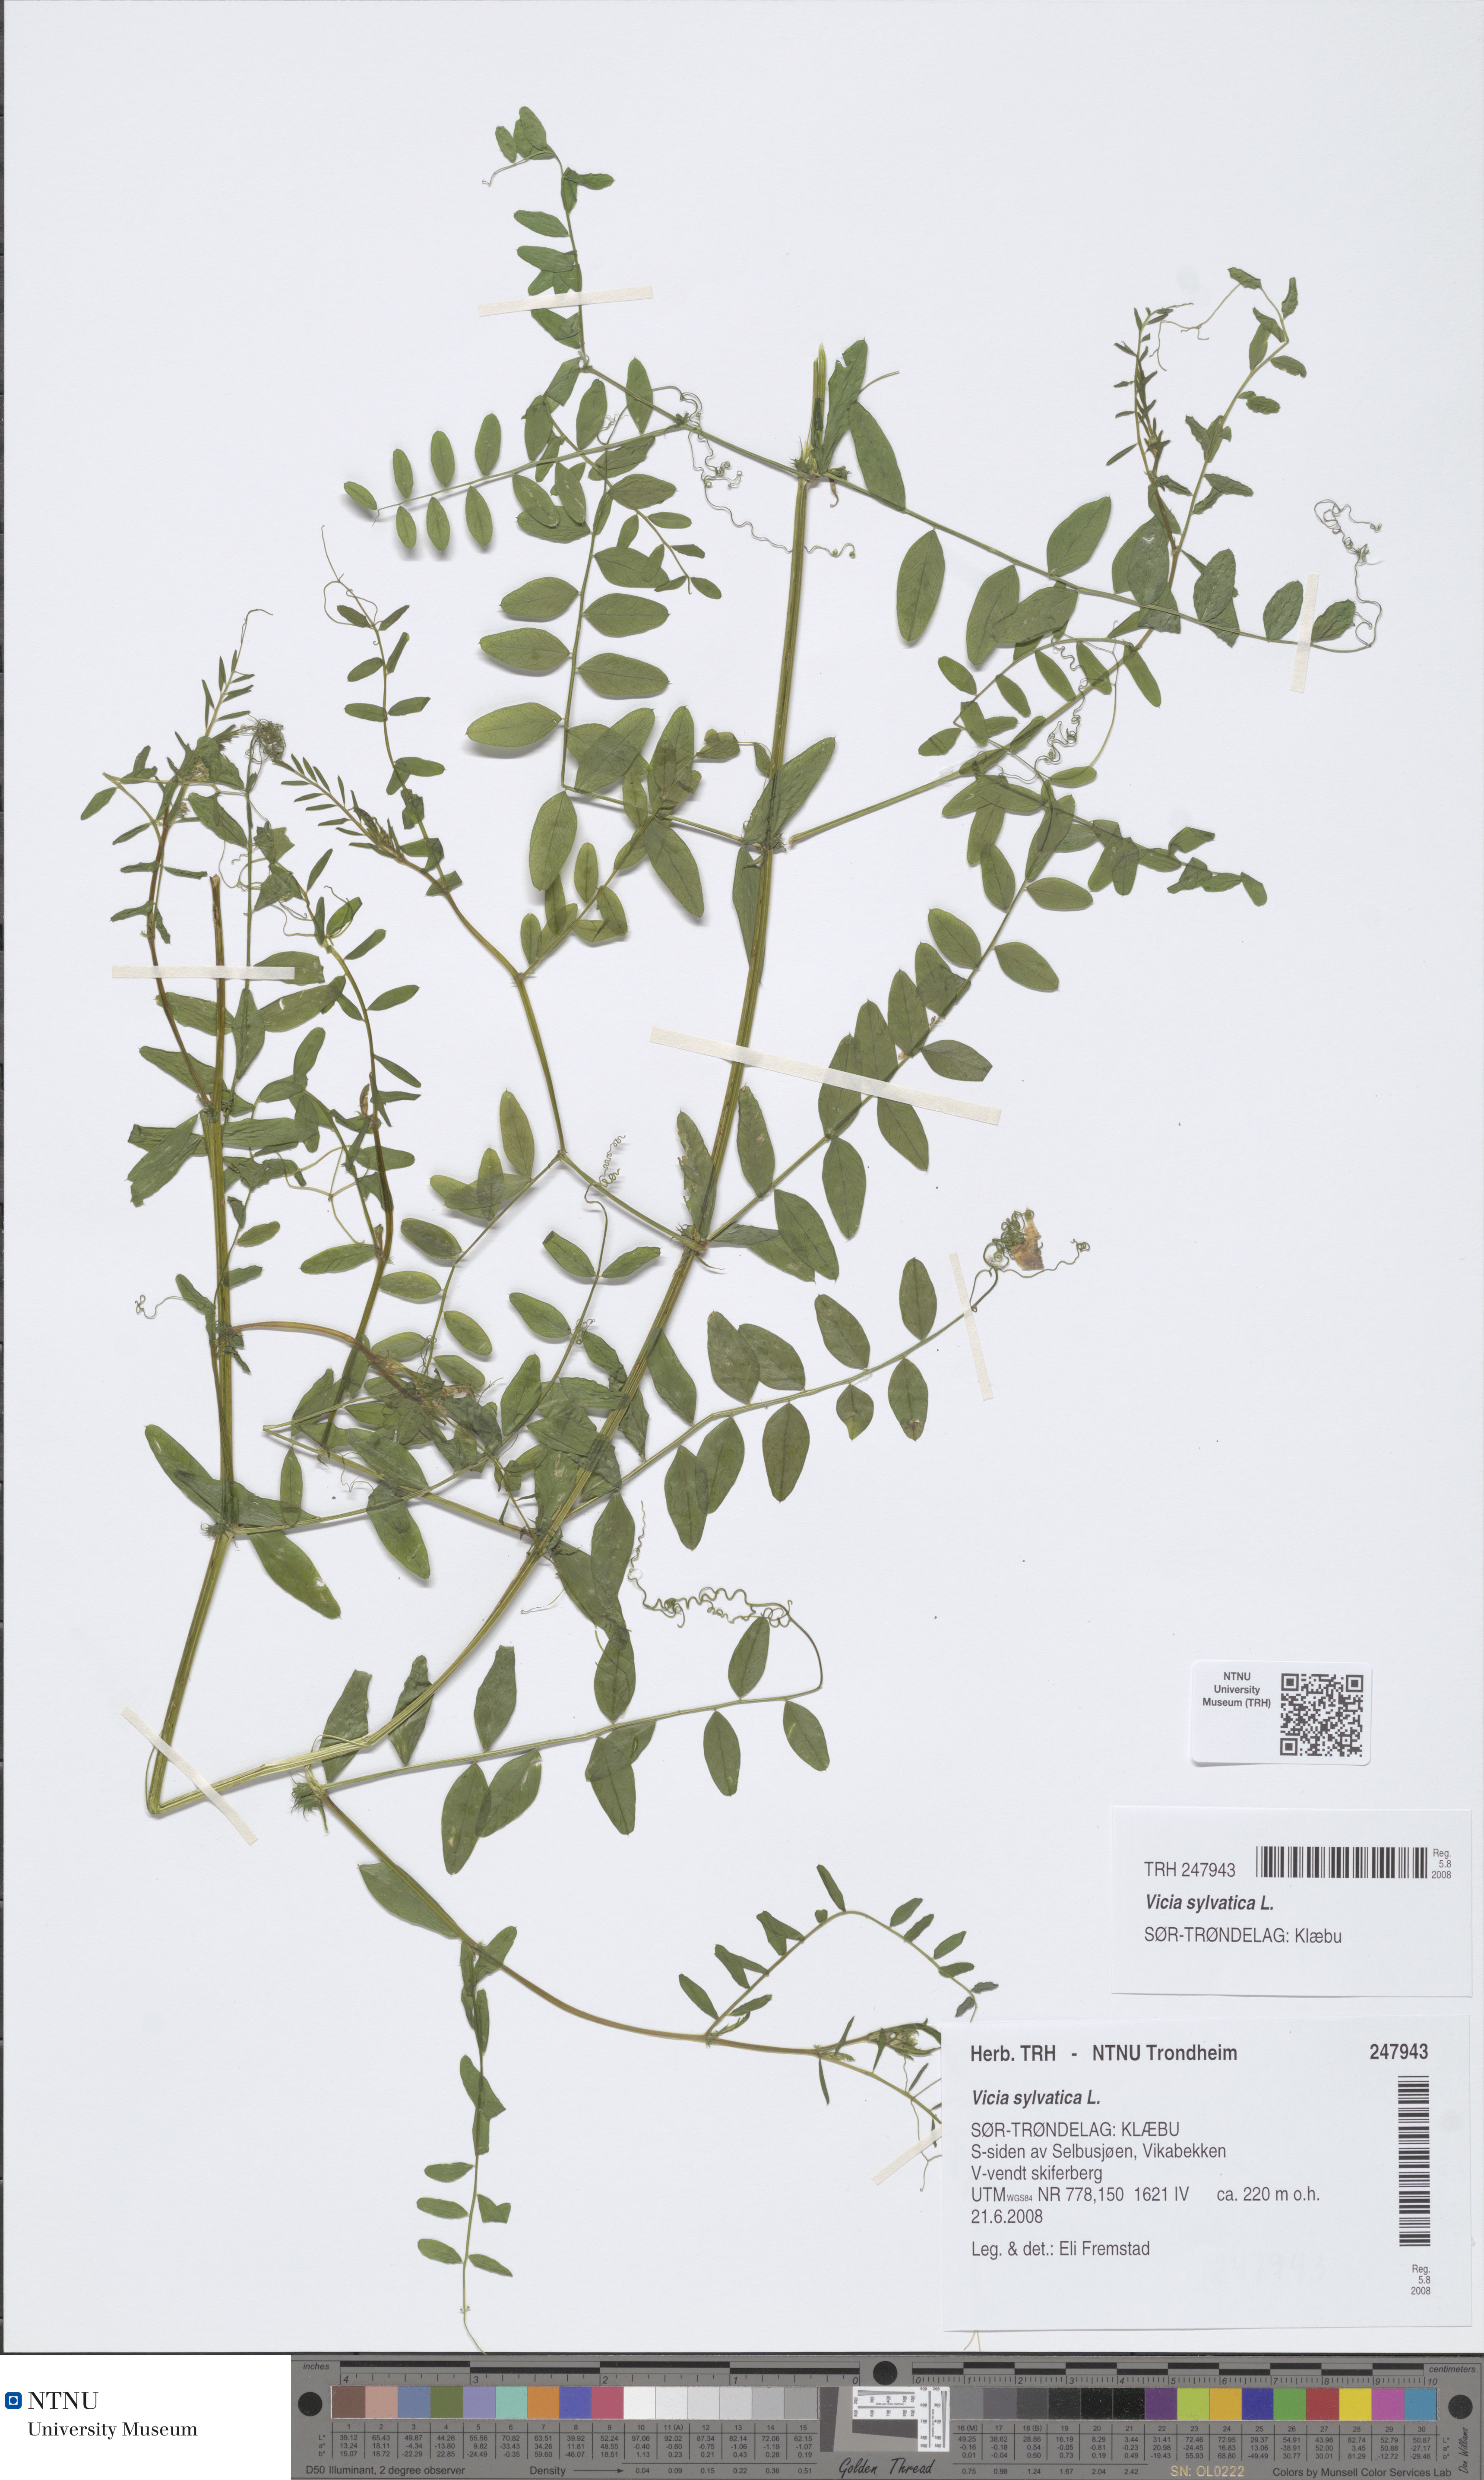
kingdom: Plantae
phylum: Tracheophyta
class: Magnoliopsida
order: Fabales
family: Fabaceae
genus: Vicia
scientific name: Vicia sylvatica
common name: Wood vetch
